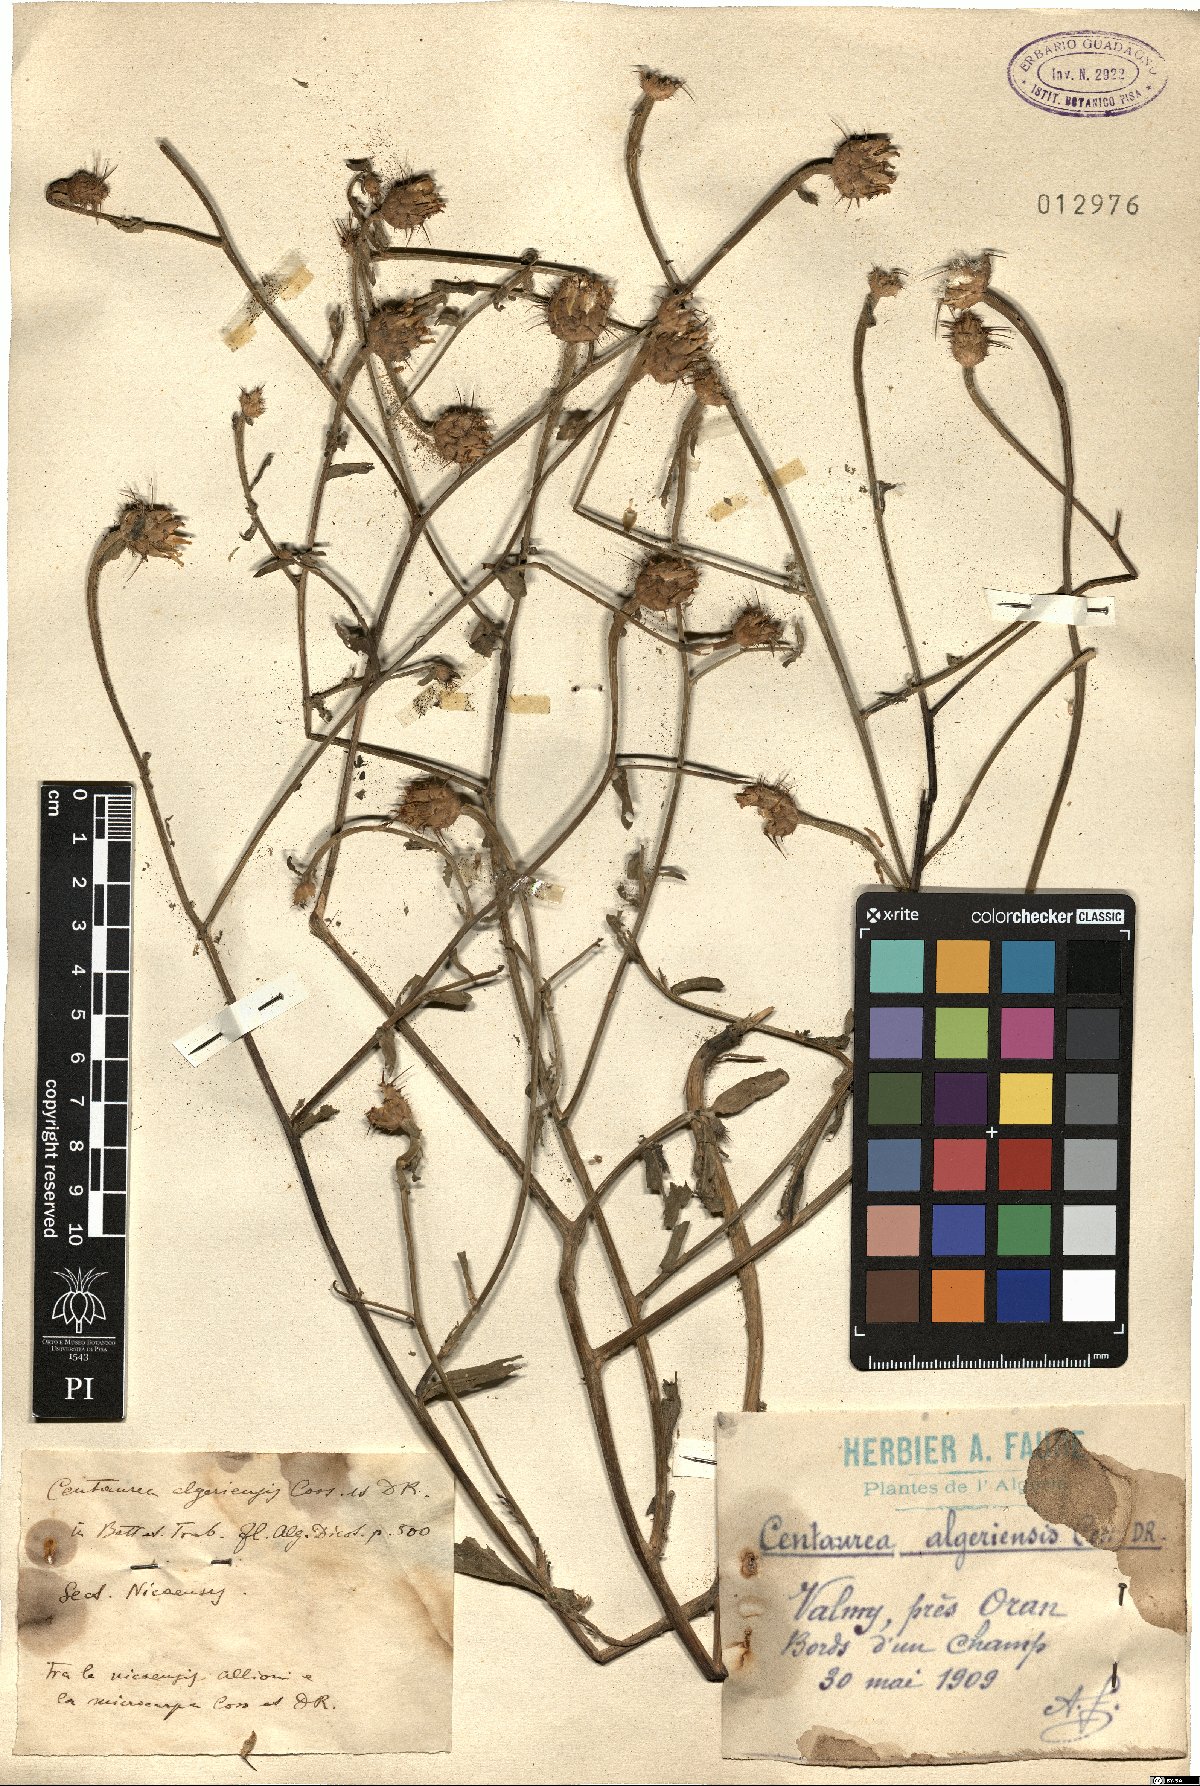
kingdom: Plantae
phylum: Tracheophyta
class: Magnoliopsida
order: Asterales
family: Asteraceae
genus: Centaurea
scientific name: Centaurea diluta
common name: Lesser star-thistle
